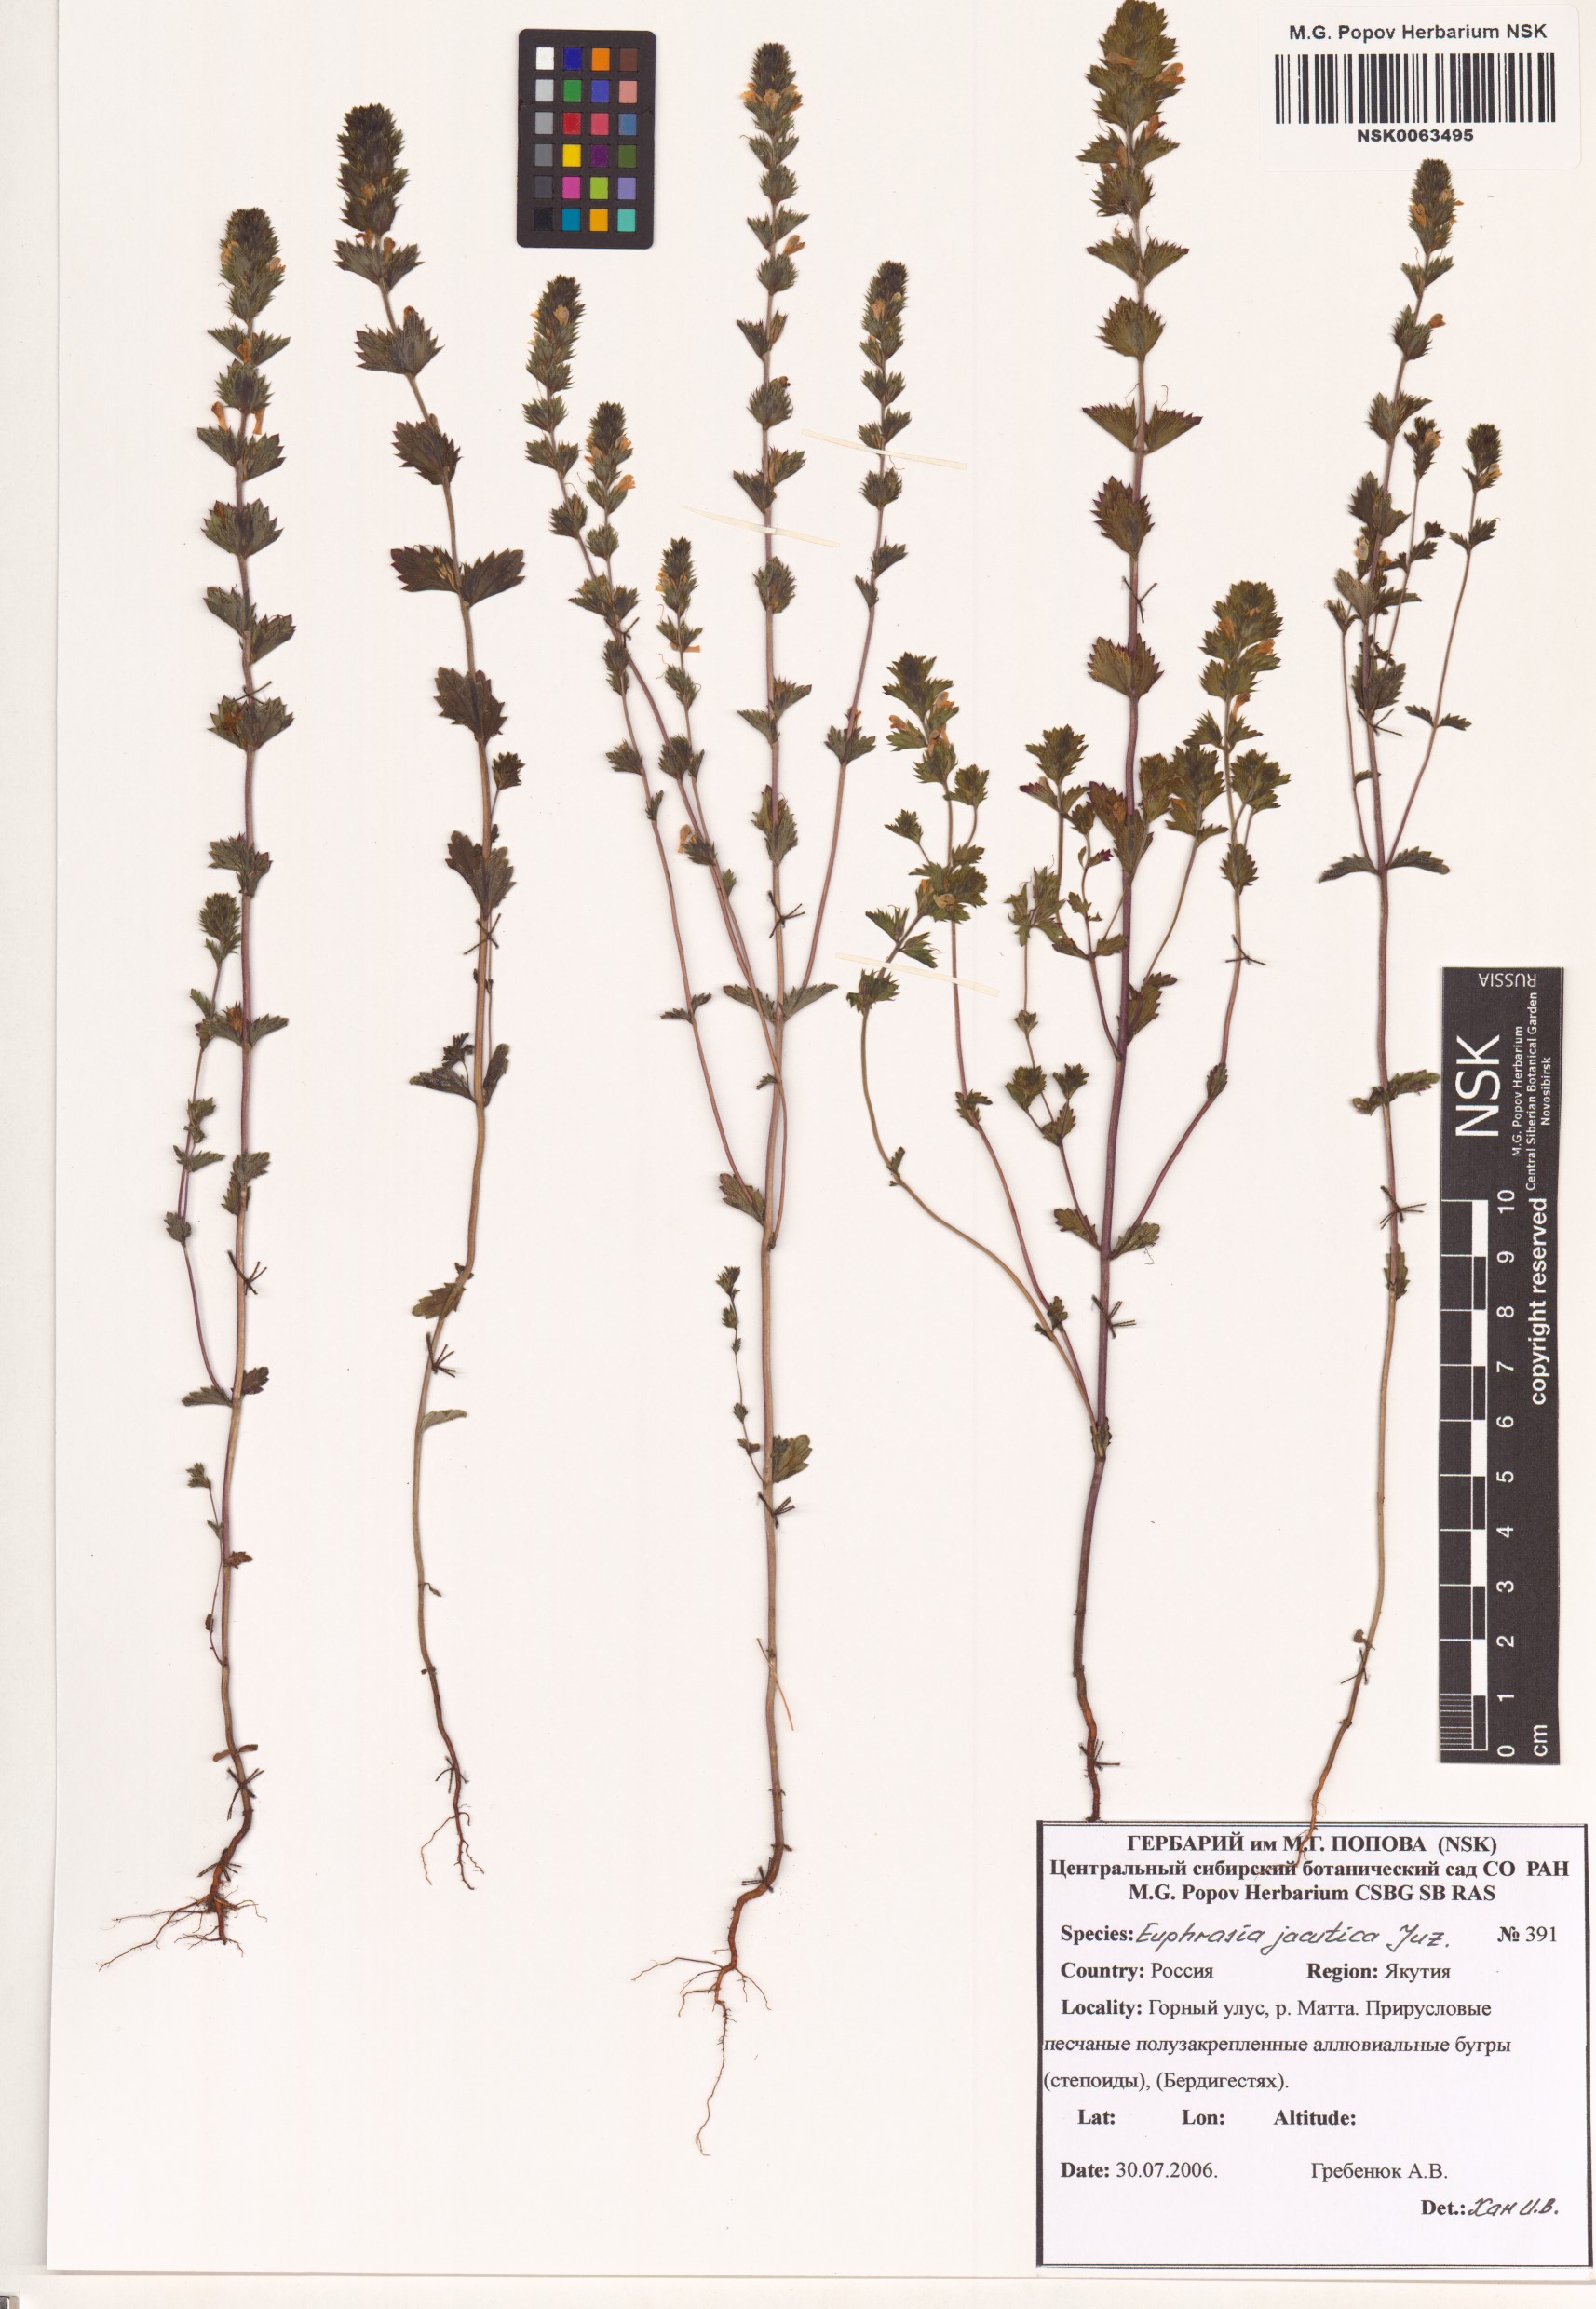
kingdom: Plantae
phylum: Tracheophyta
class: Magnoliopsida
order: Lamiales
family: Orobanchaceae
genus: Euphrasia
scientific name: Euphrasia jacutica
